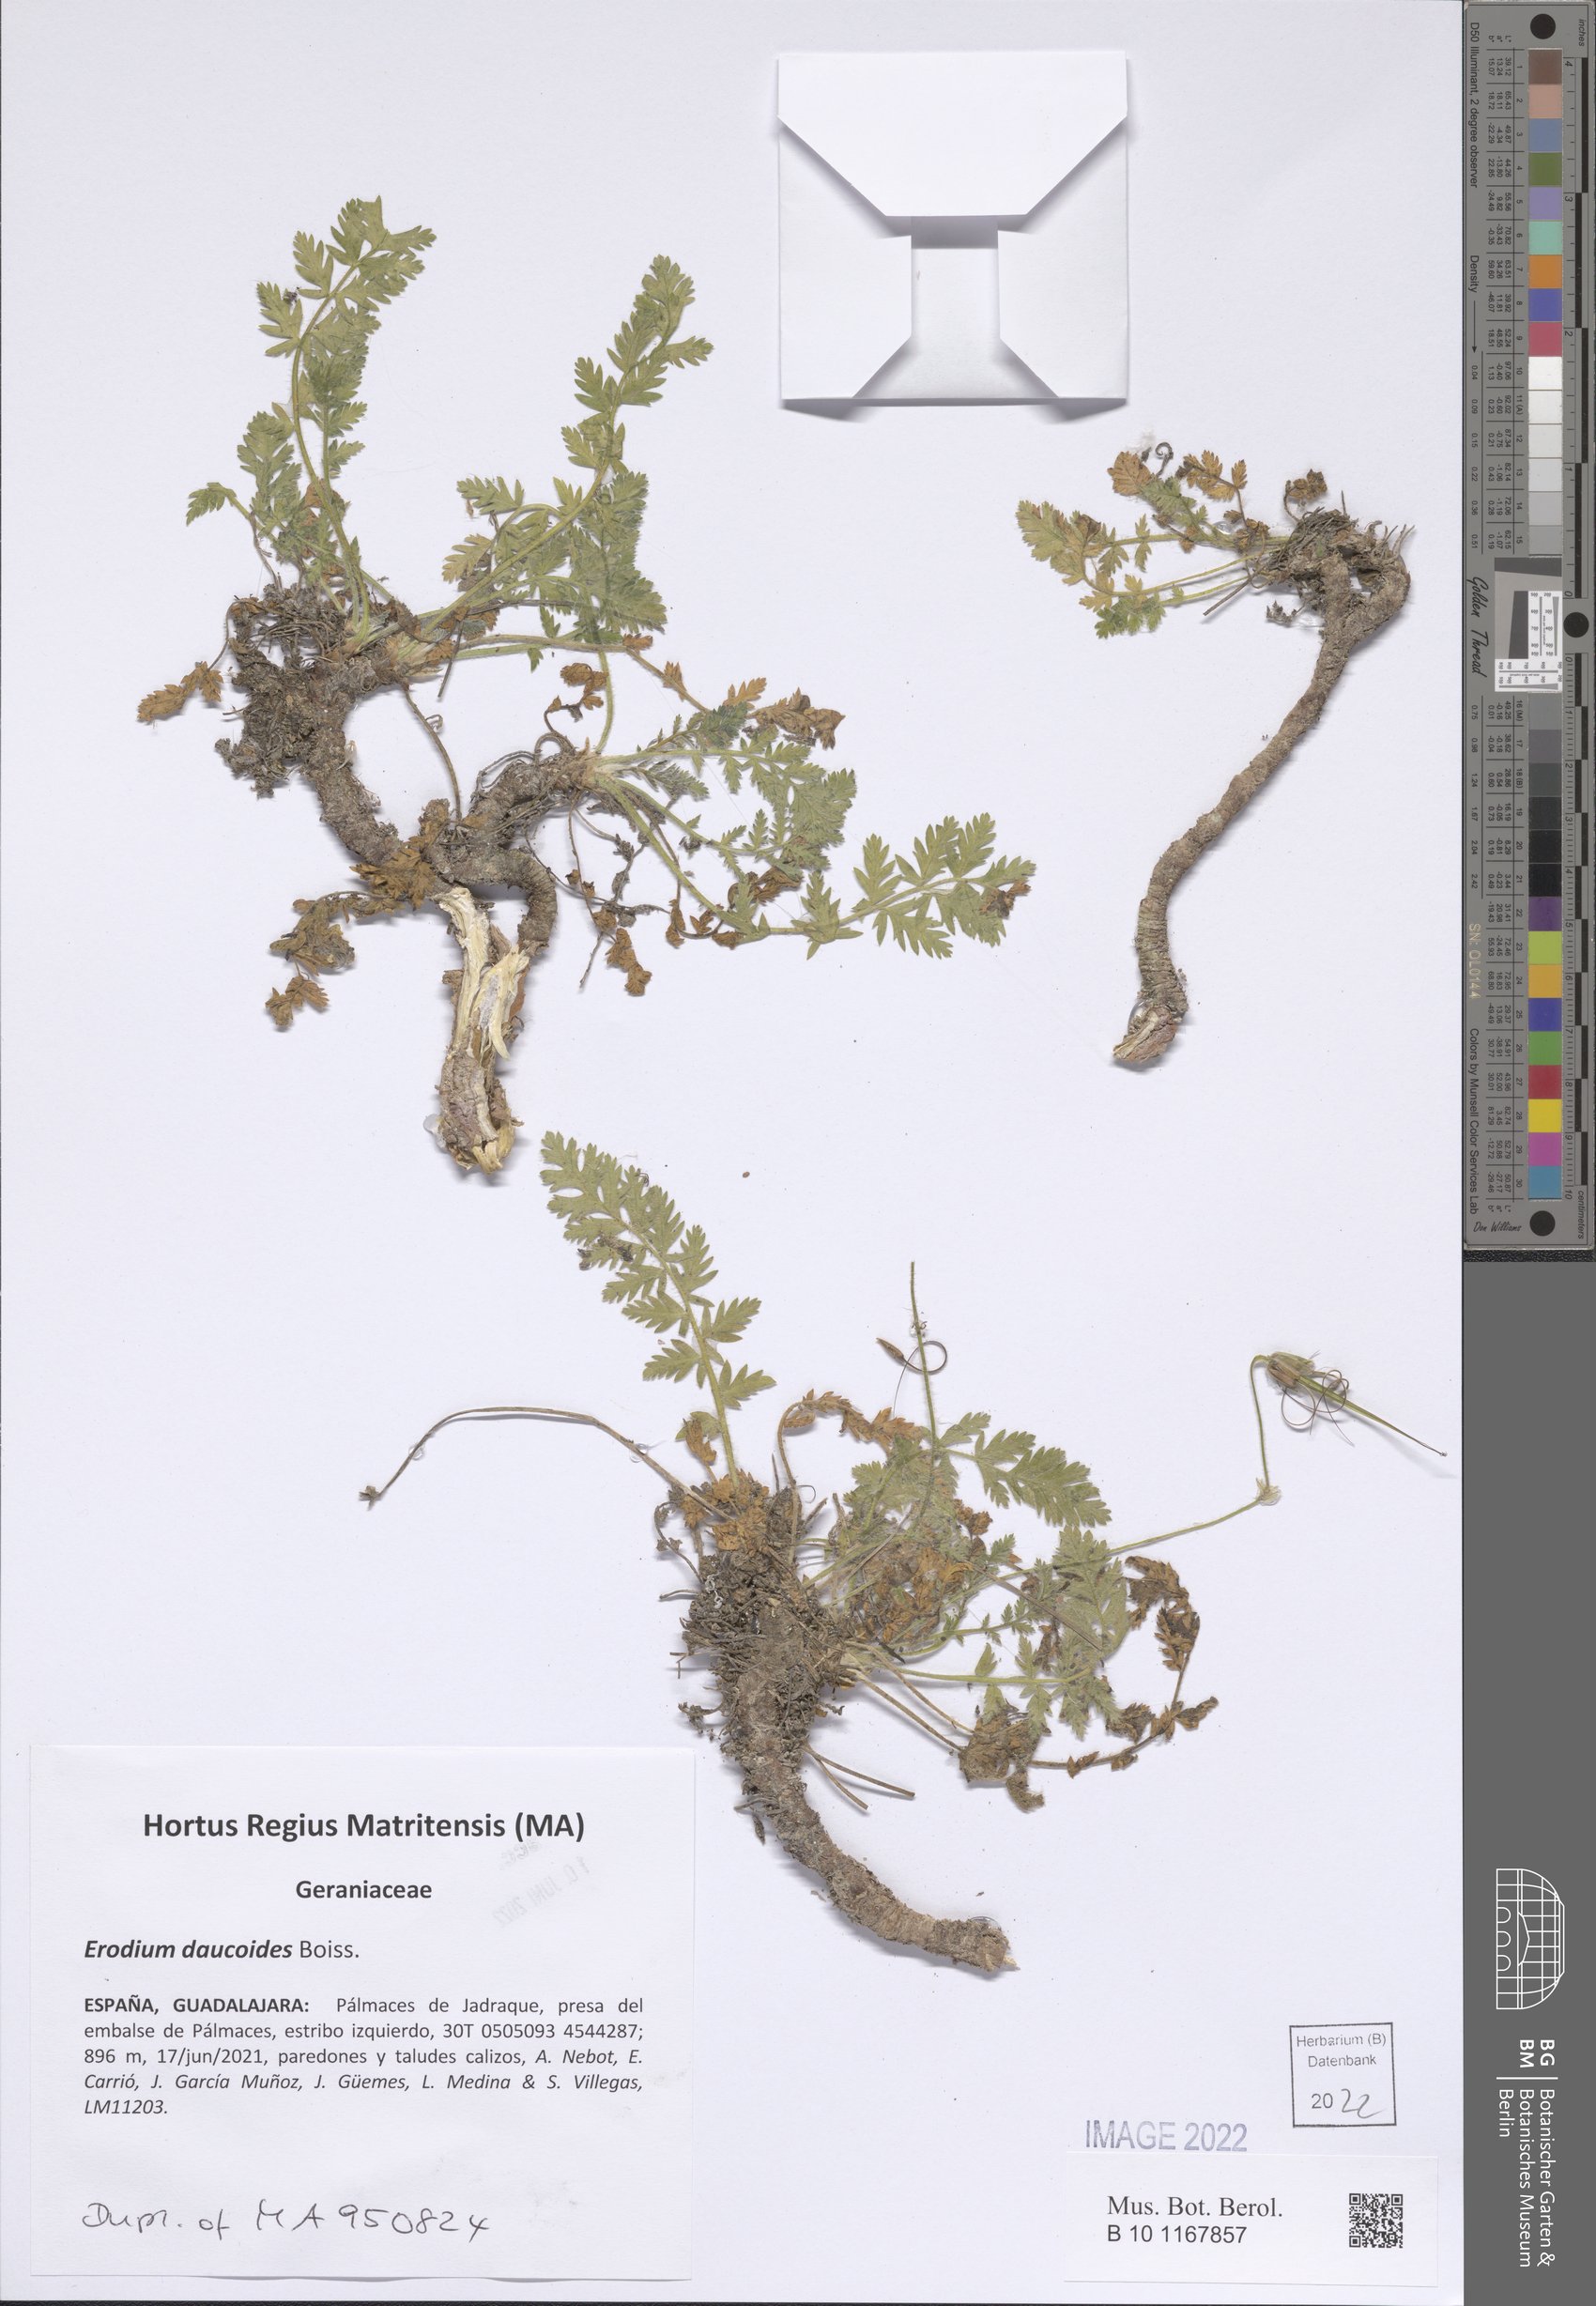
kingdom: Plantae
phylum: Tracheophyta
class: Magnoliopsida
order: Geraniales
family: Geraniaceae
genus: Erodium
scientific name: Erodium daucoides
